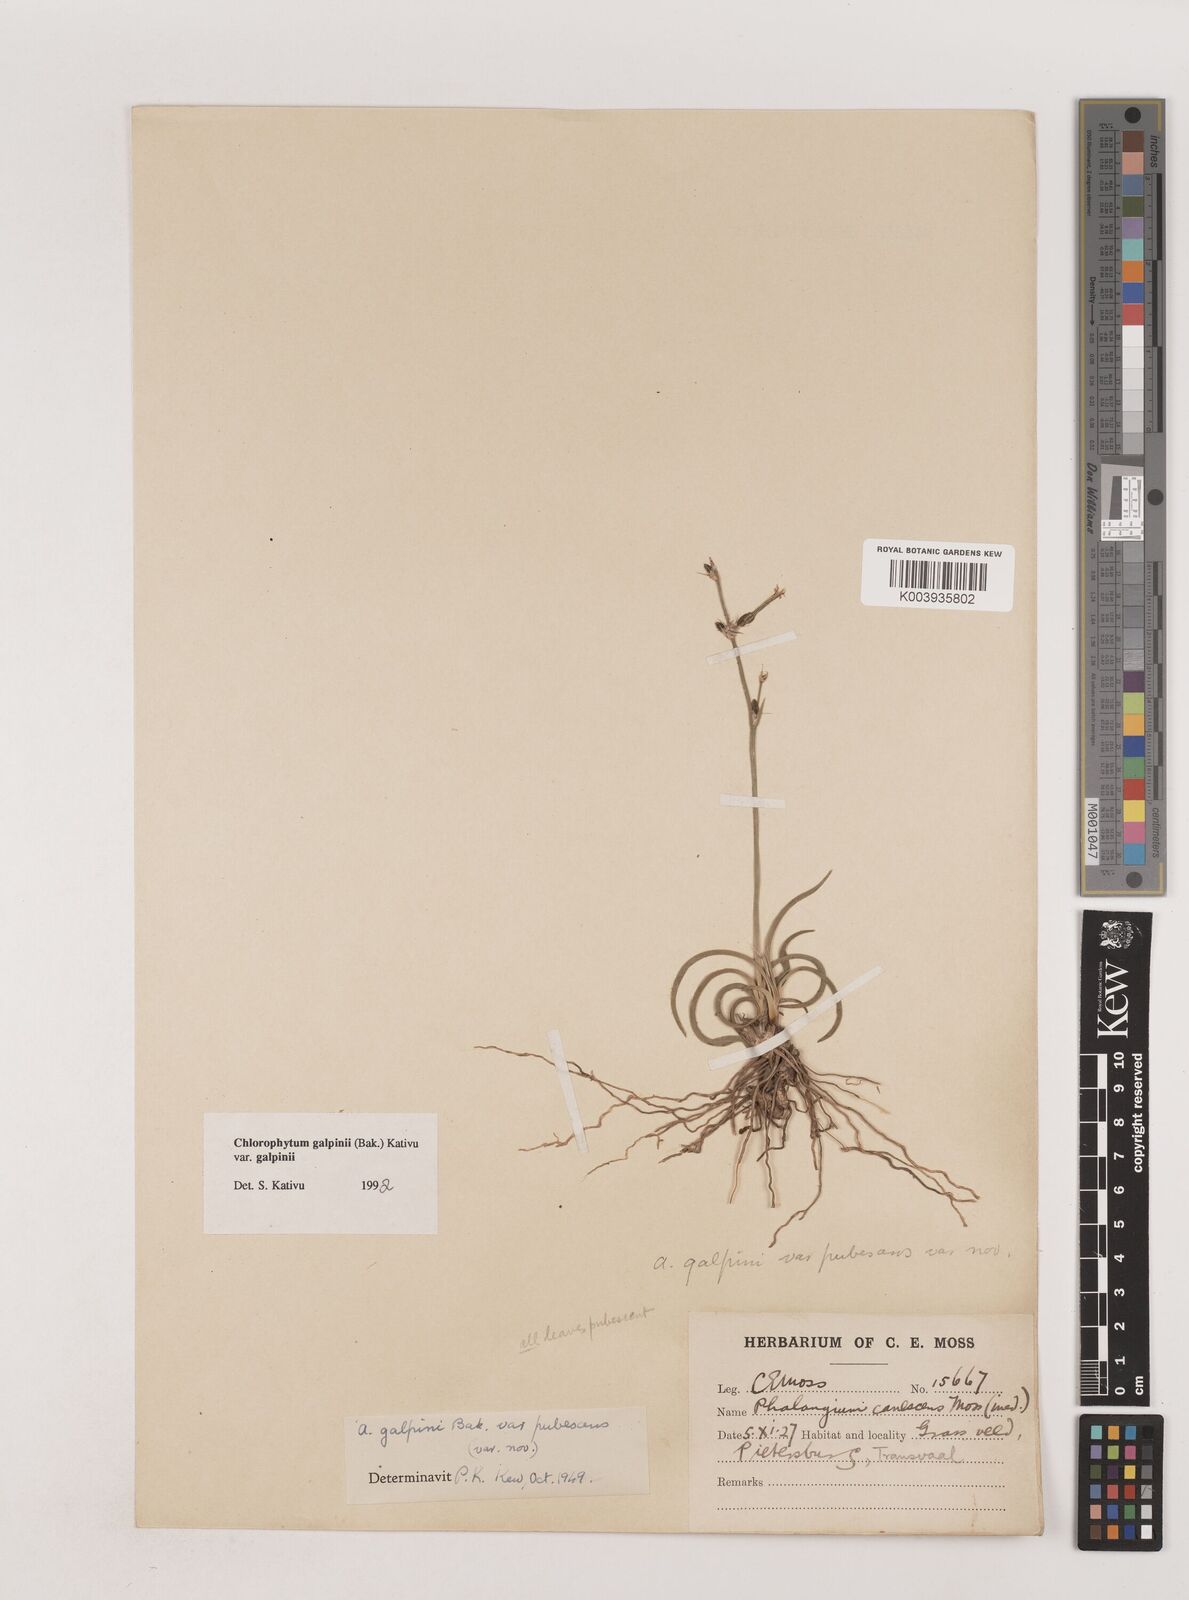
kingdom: Plantae
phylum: Tracheophyta
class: Liliopsida
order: Asparagales
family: Asparagaceae
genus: Chlorophytum
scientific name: Chlorophytum galpinii
